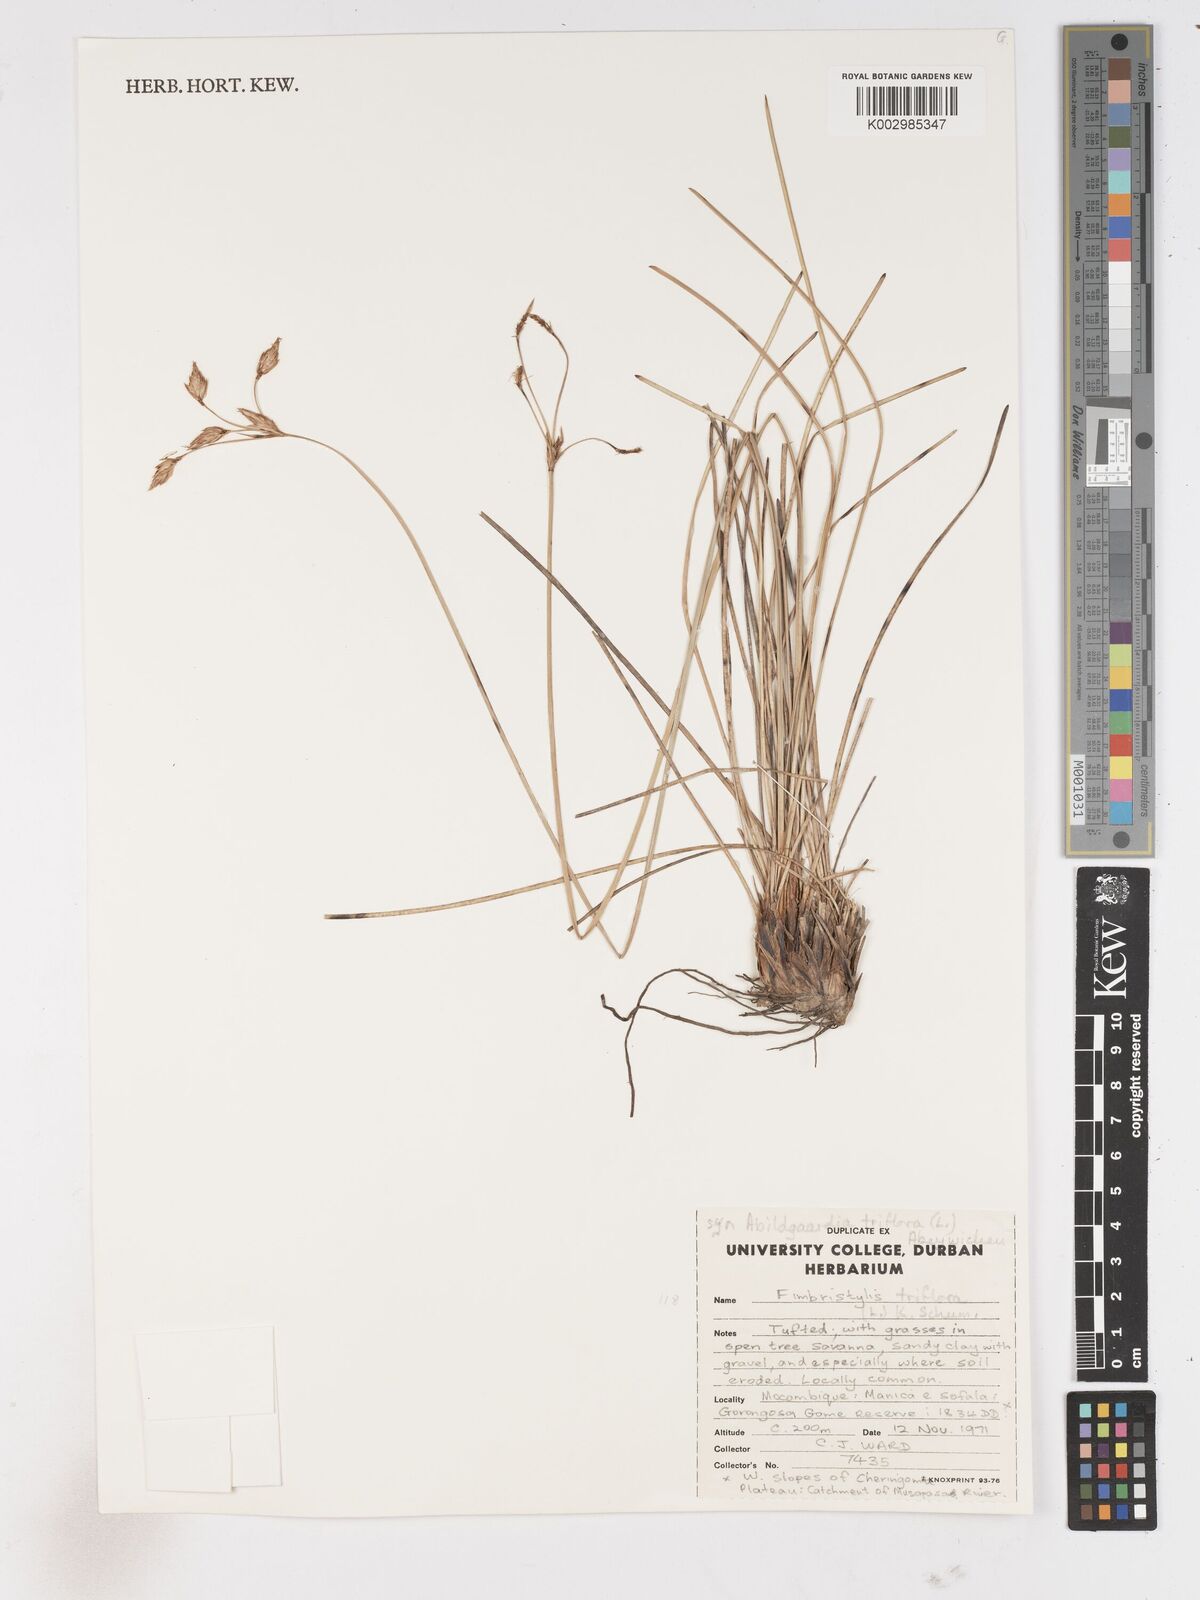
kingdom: Plantae
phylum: Tracheophyta
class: Liliopsida
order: Poales
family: Cyperaceae
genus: Abildgaardia
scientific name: Abildgaardia triflora
